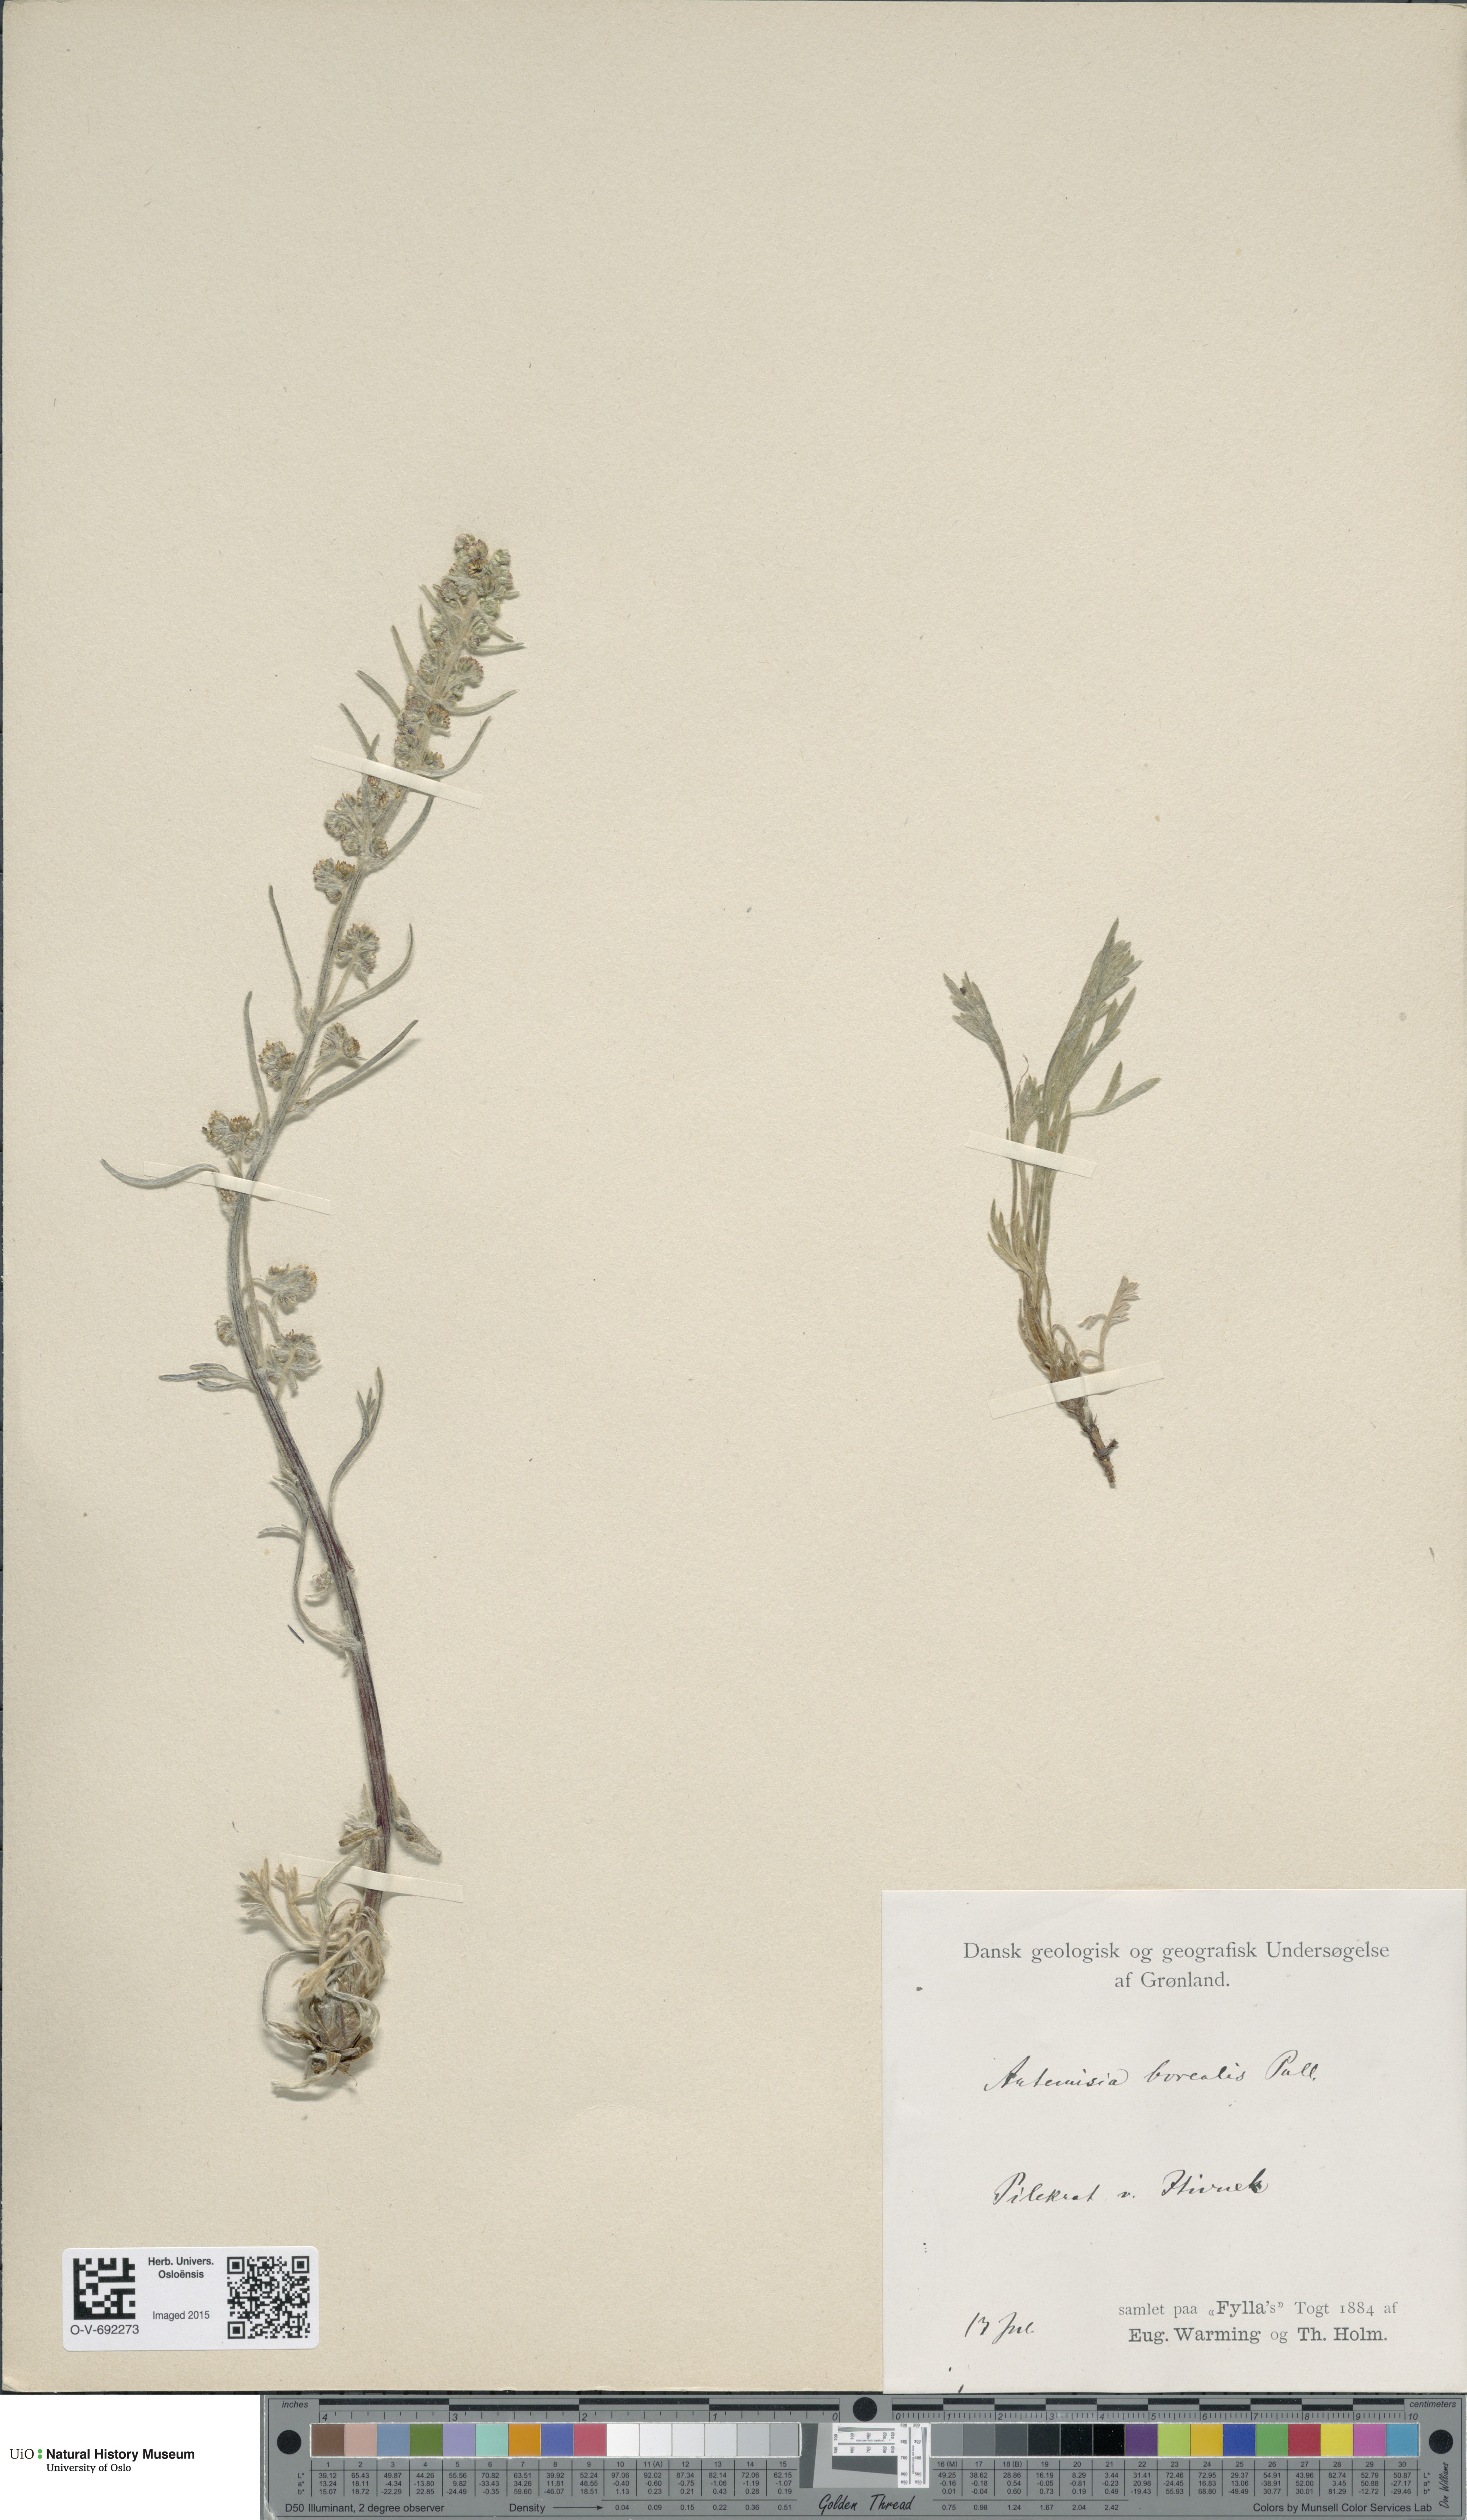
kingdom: Plantae
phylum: Tracheophyta
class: Magnoliopsida
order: Asterales
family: Asteraceae
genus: Artemisia
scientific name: Artemisia borealis
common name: Boreal sage
